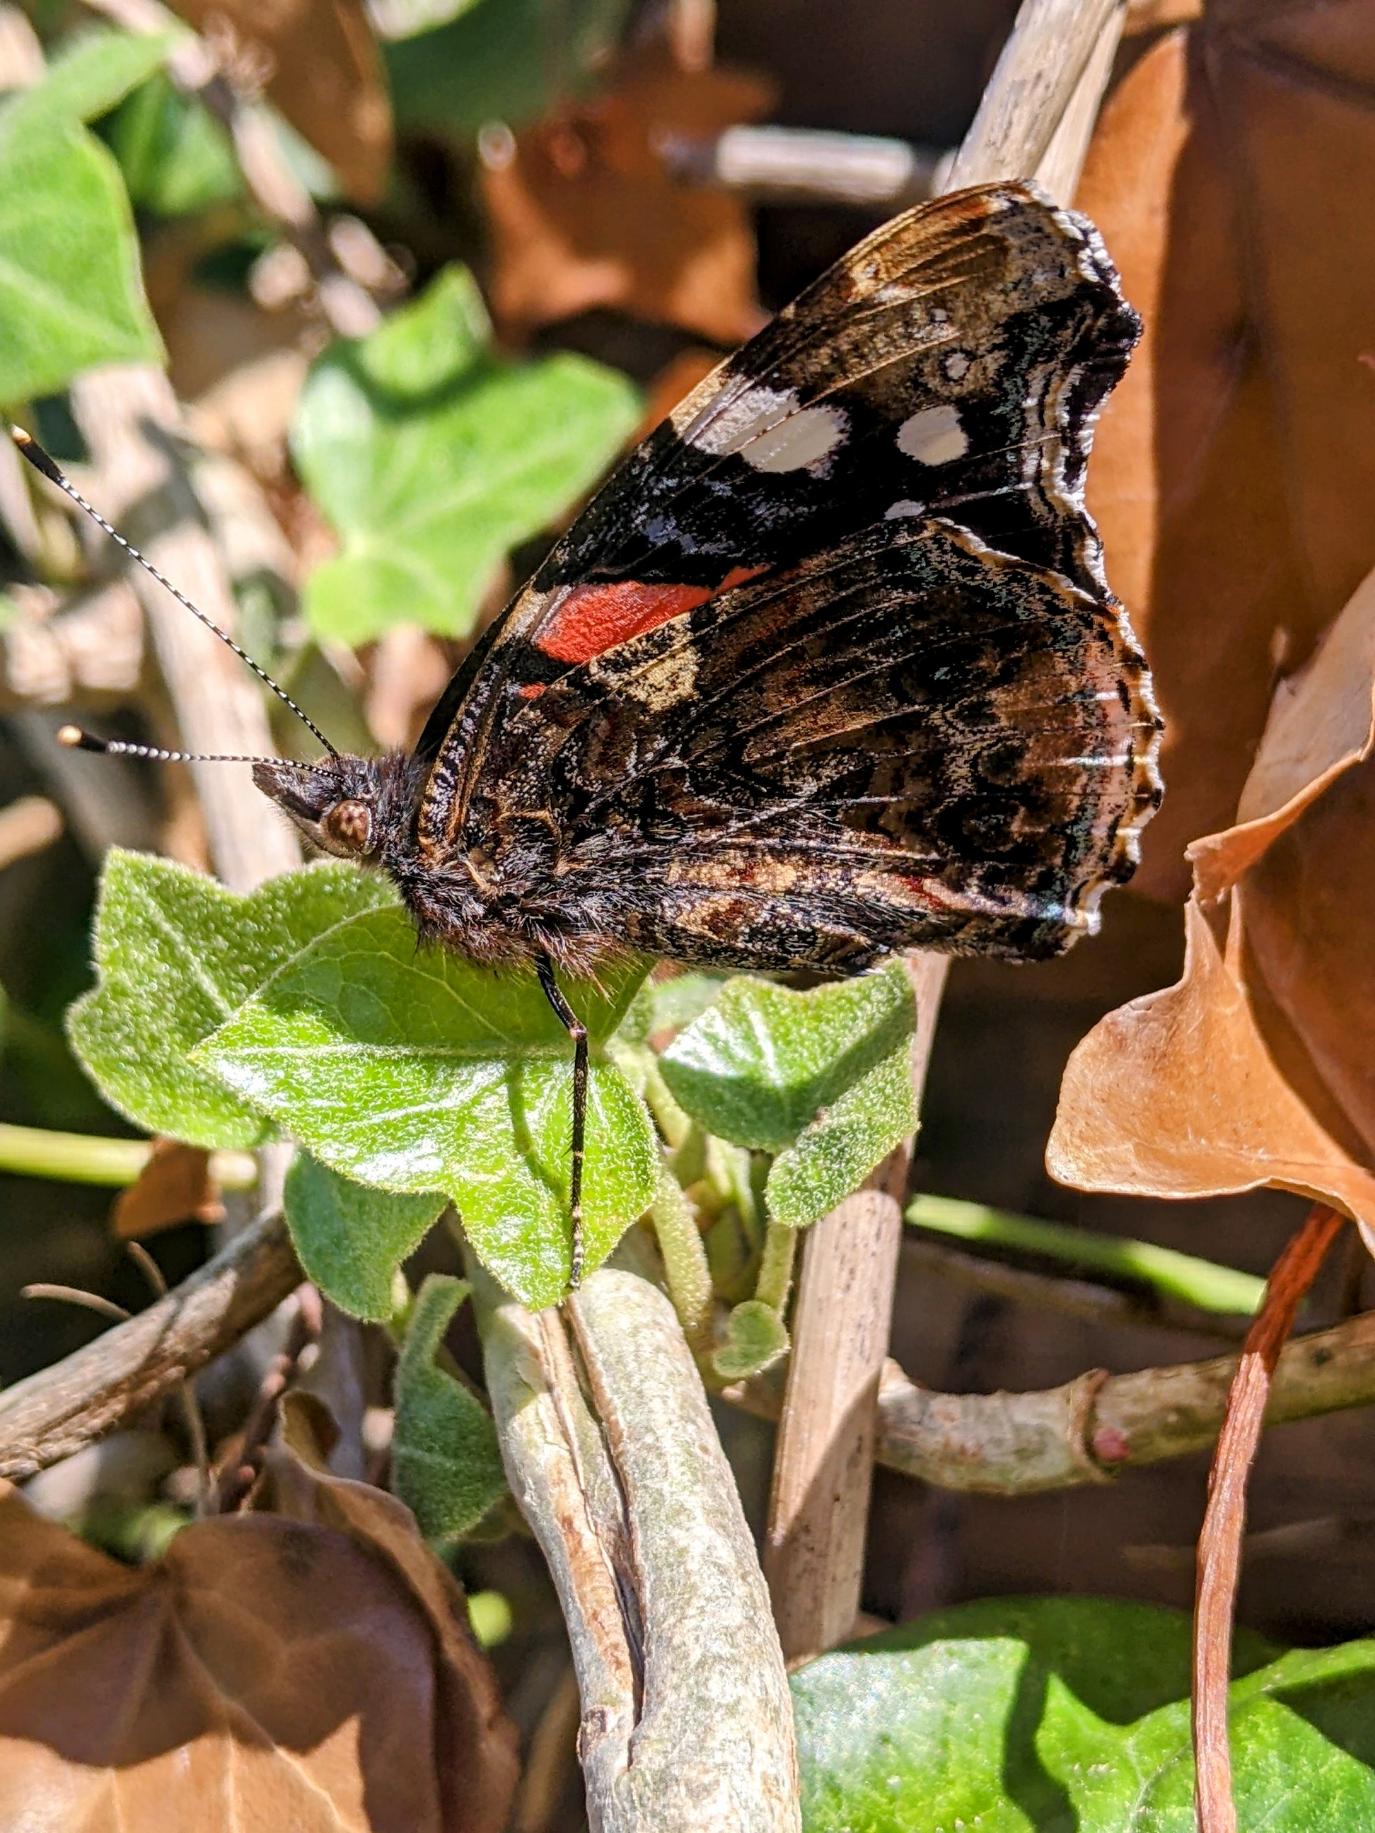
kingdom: Animalia
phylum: Arthropoda
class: Insecta
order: Lepidoptera
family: Nymphalidae
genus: Vanessa
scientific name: Vanessa atalanta
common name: Admiral
